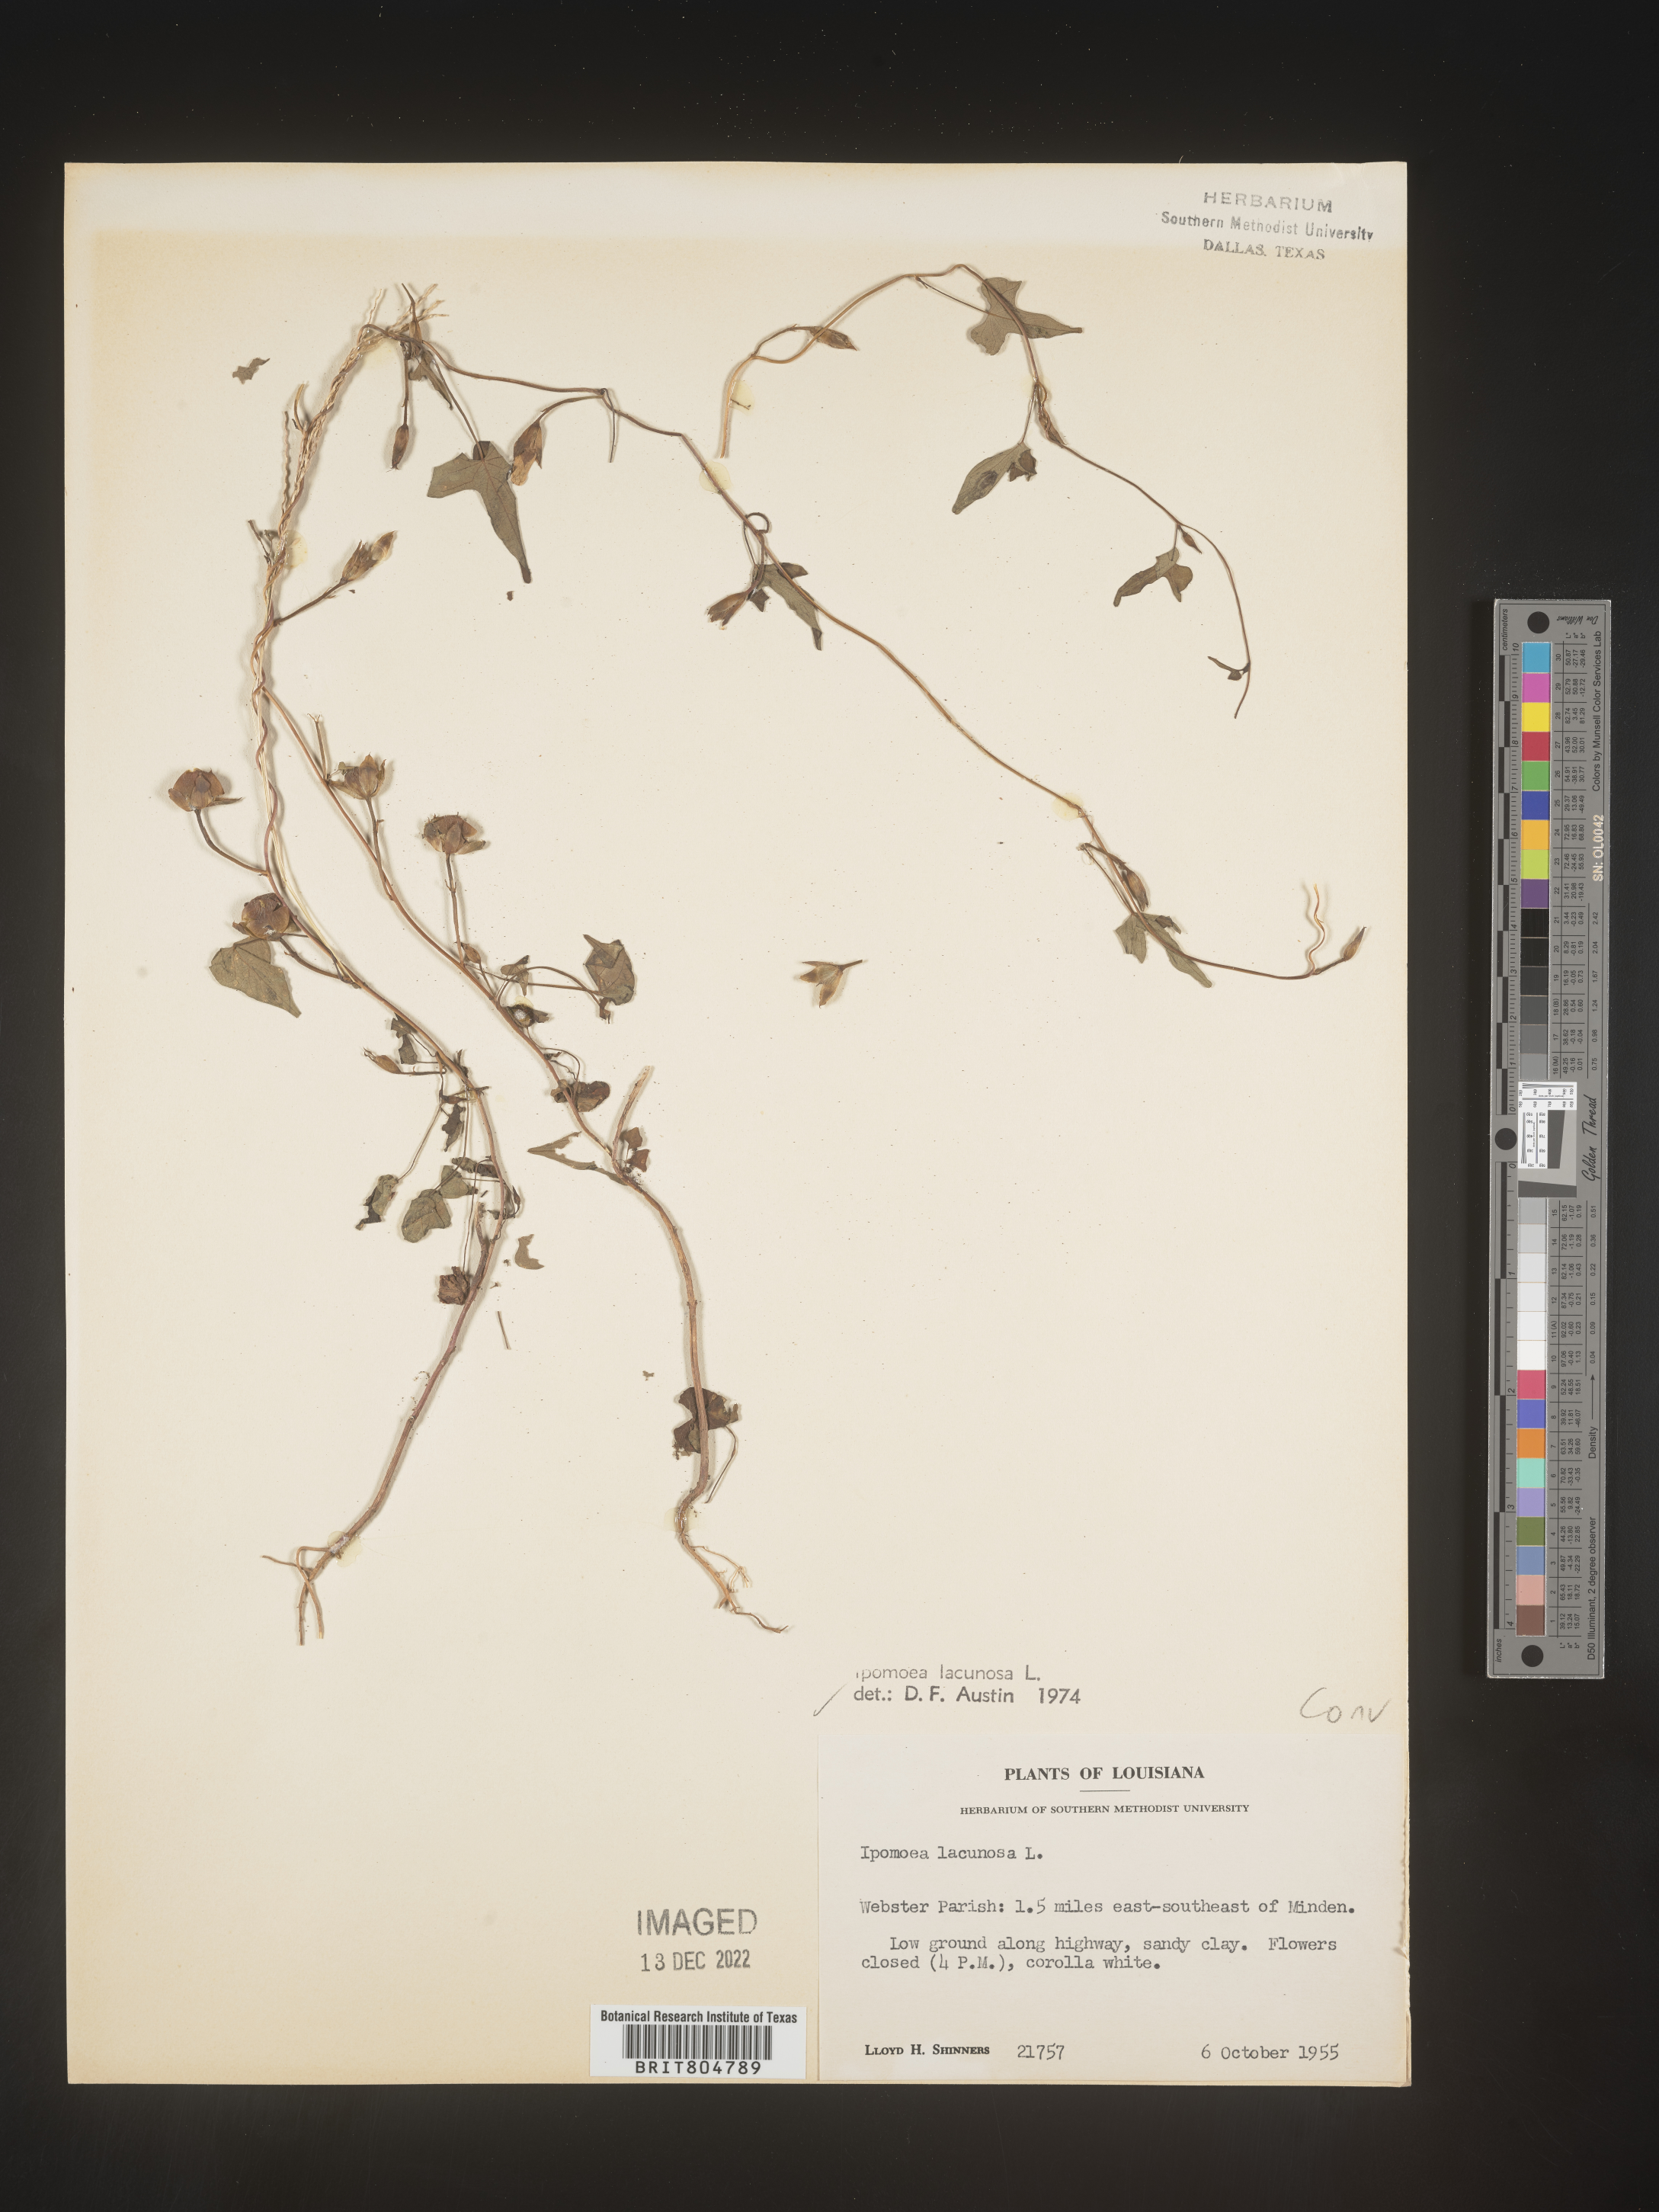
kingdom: Plantae
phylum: Tracheophyta
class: Magnoliopsida
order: Solanales
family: Convolvulaceae
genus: Ipomoea
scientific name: Ipomoea lacunosa
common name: White morning-glory
